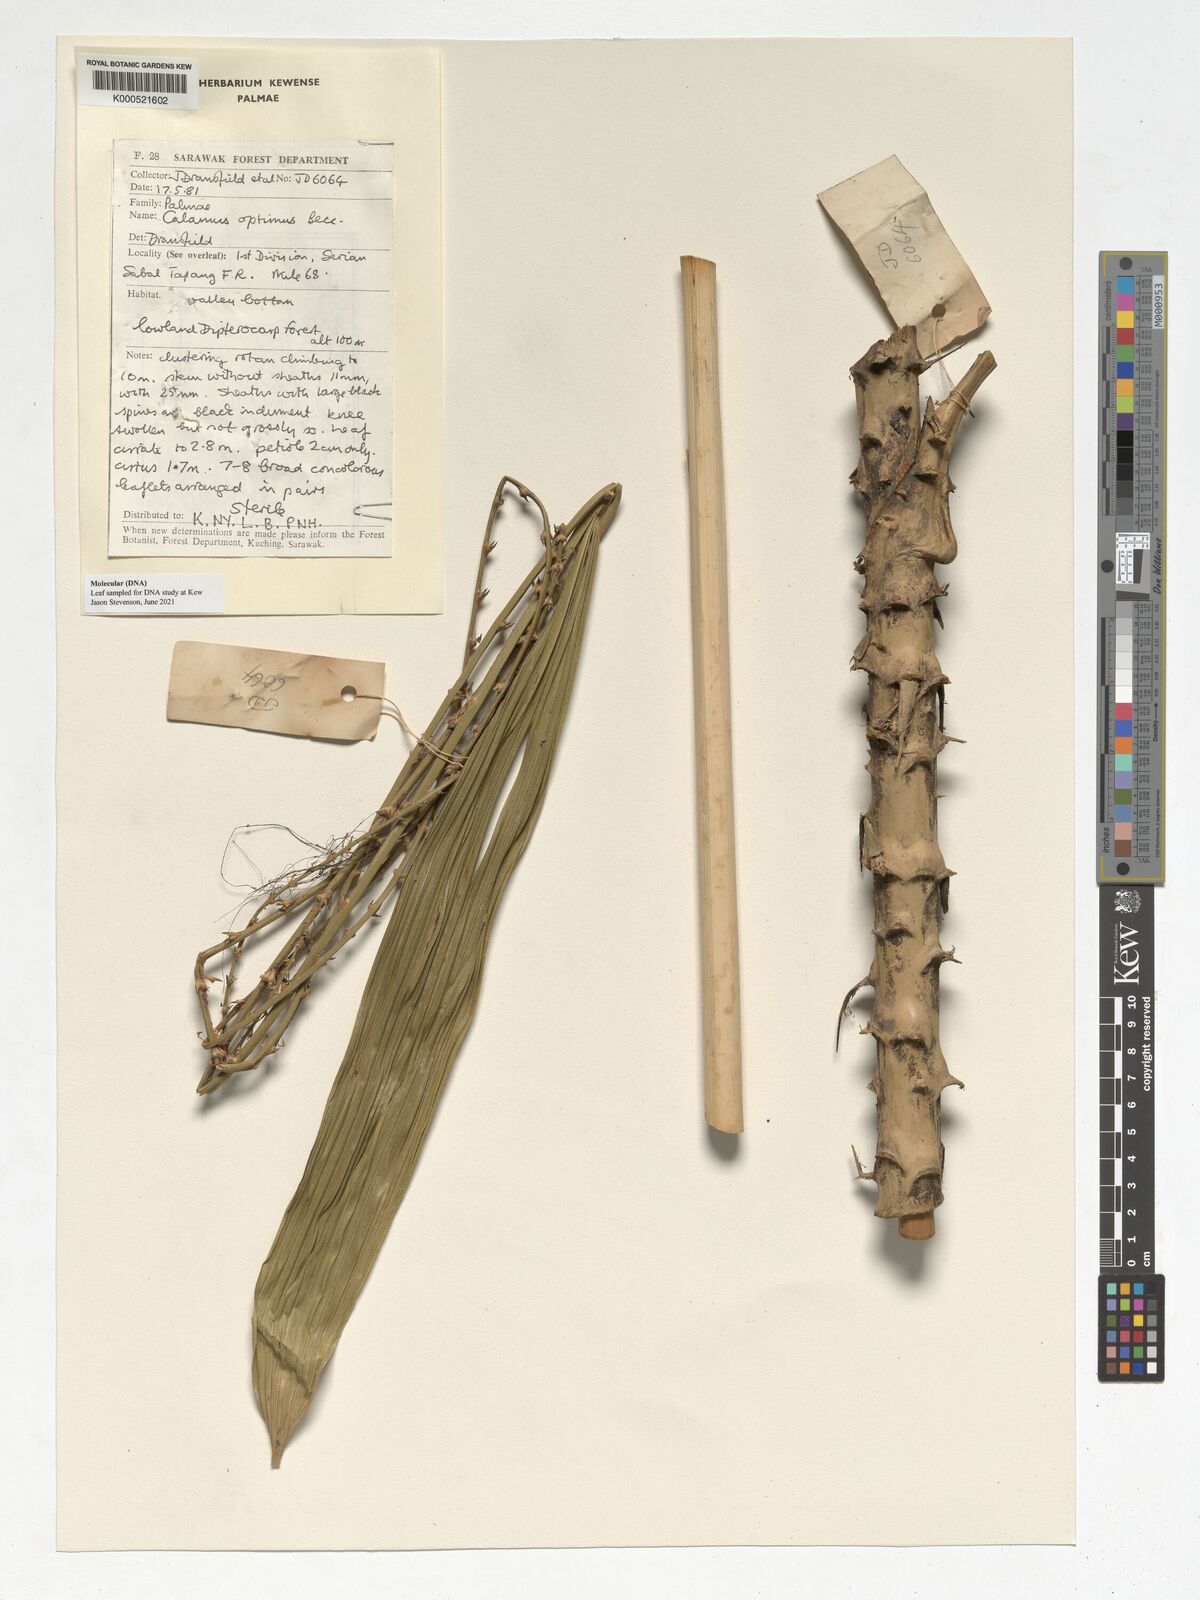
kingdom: Plantae
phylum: Tracheophyta
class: Liliopsida
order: Arecales
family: Arecaceae
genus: Calamus
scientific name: Calamus optimus
